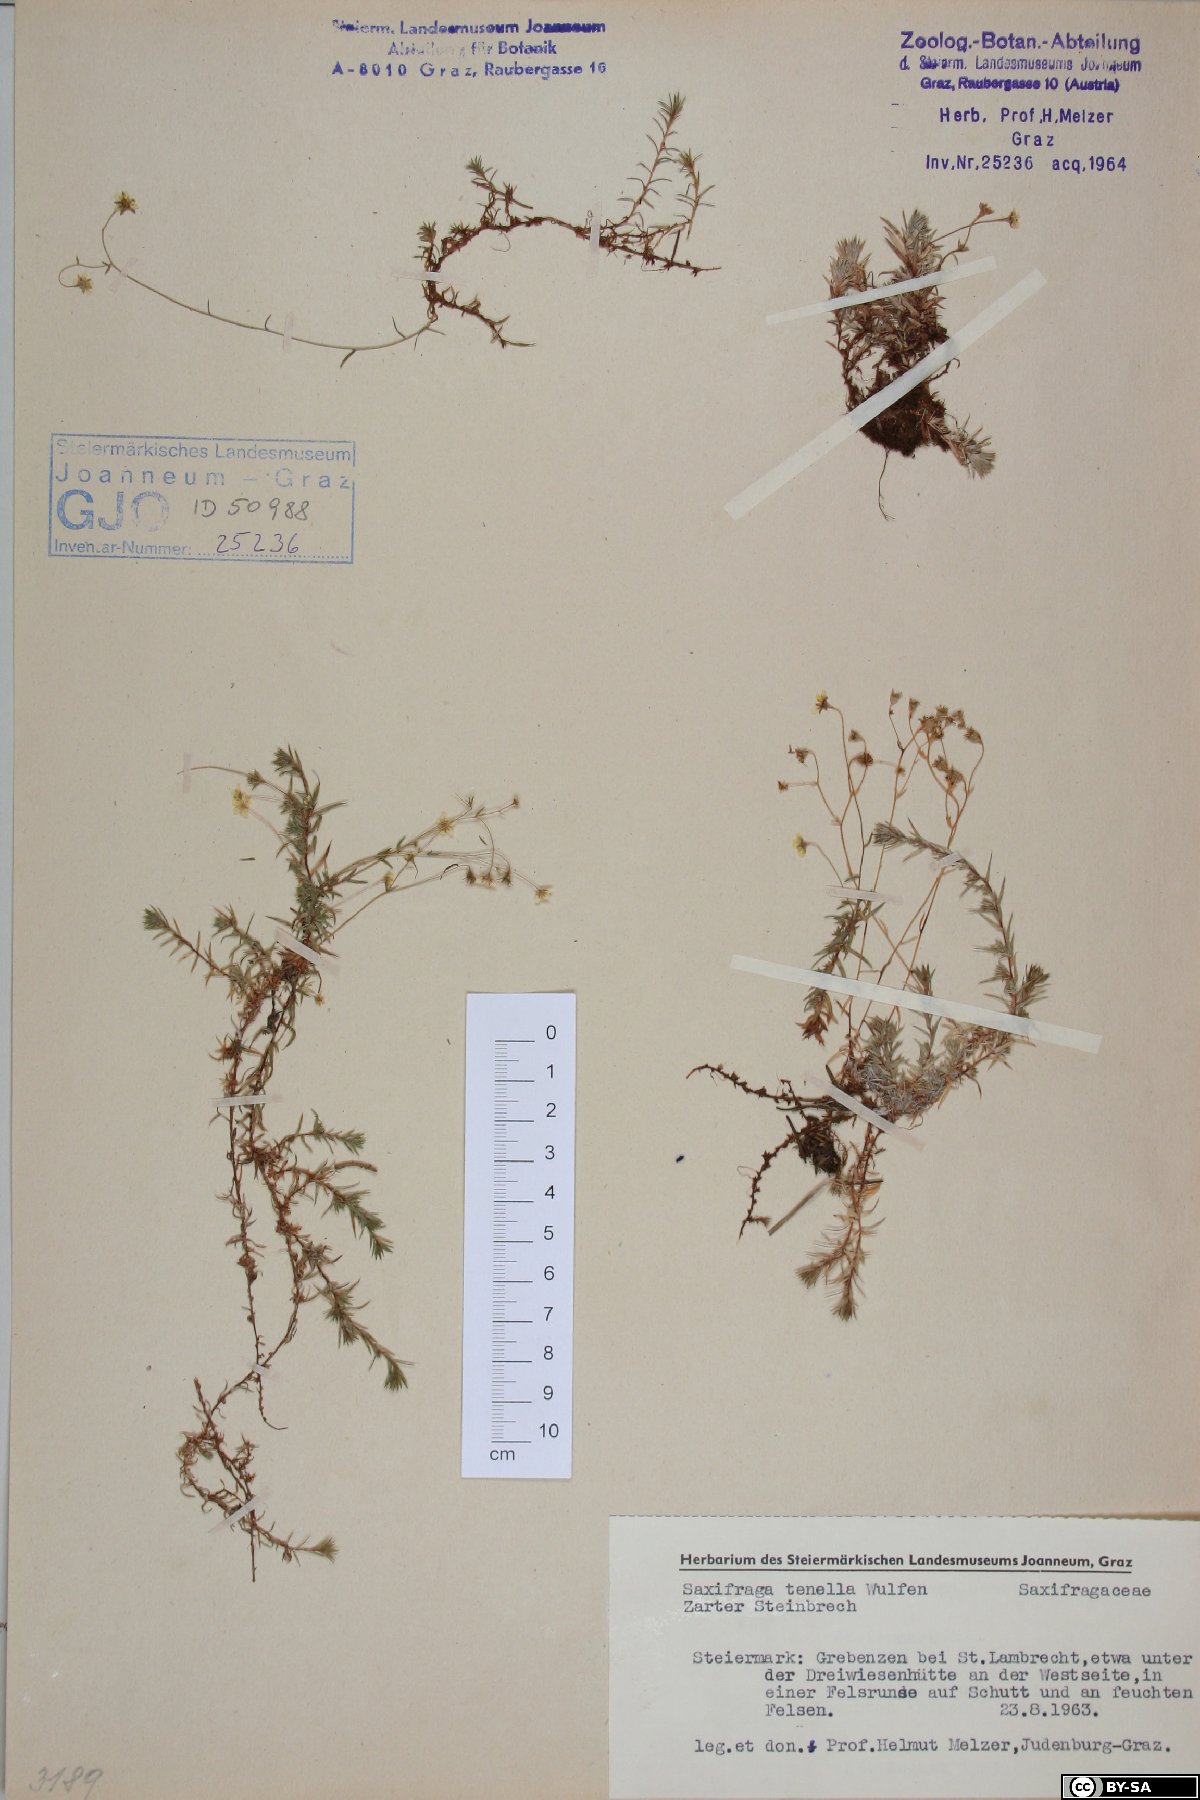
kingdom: Plantae
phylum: Tracheophyta
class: Magnoliopsida
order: Saxifragales
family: Saxifragaceae
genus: Saxifraga
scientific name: Saxifraga tenella
